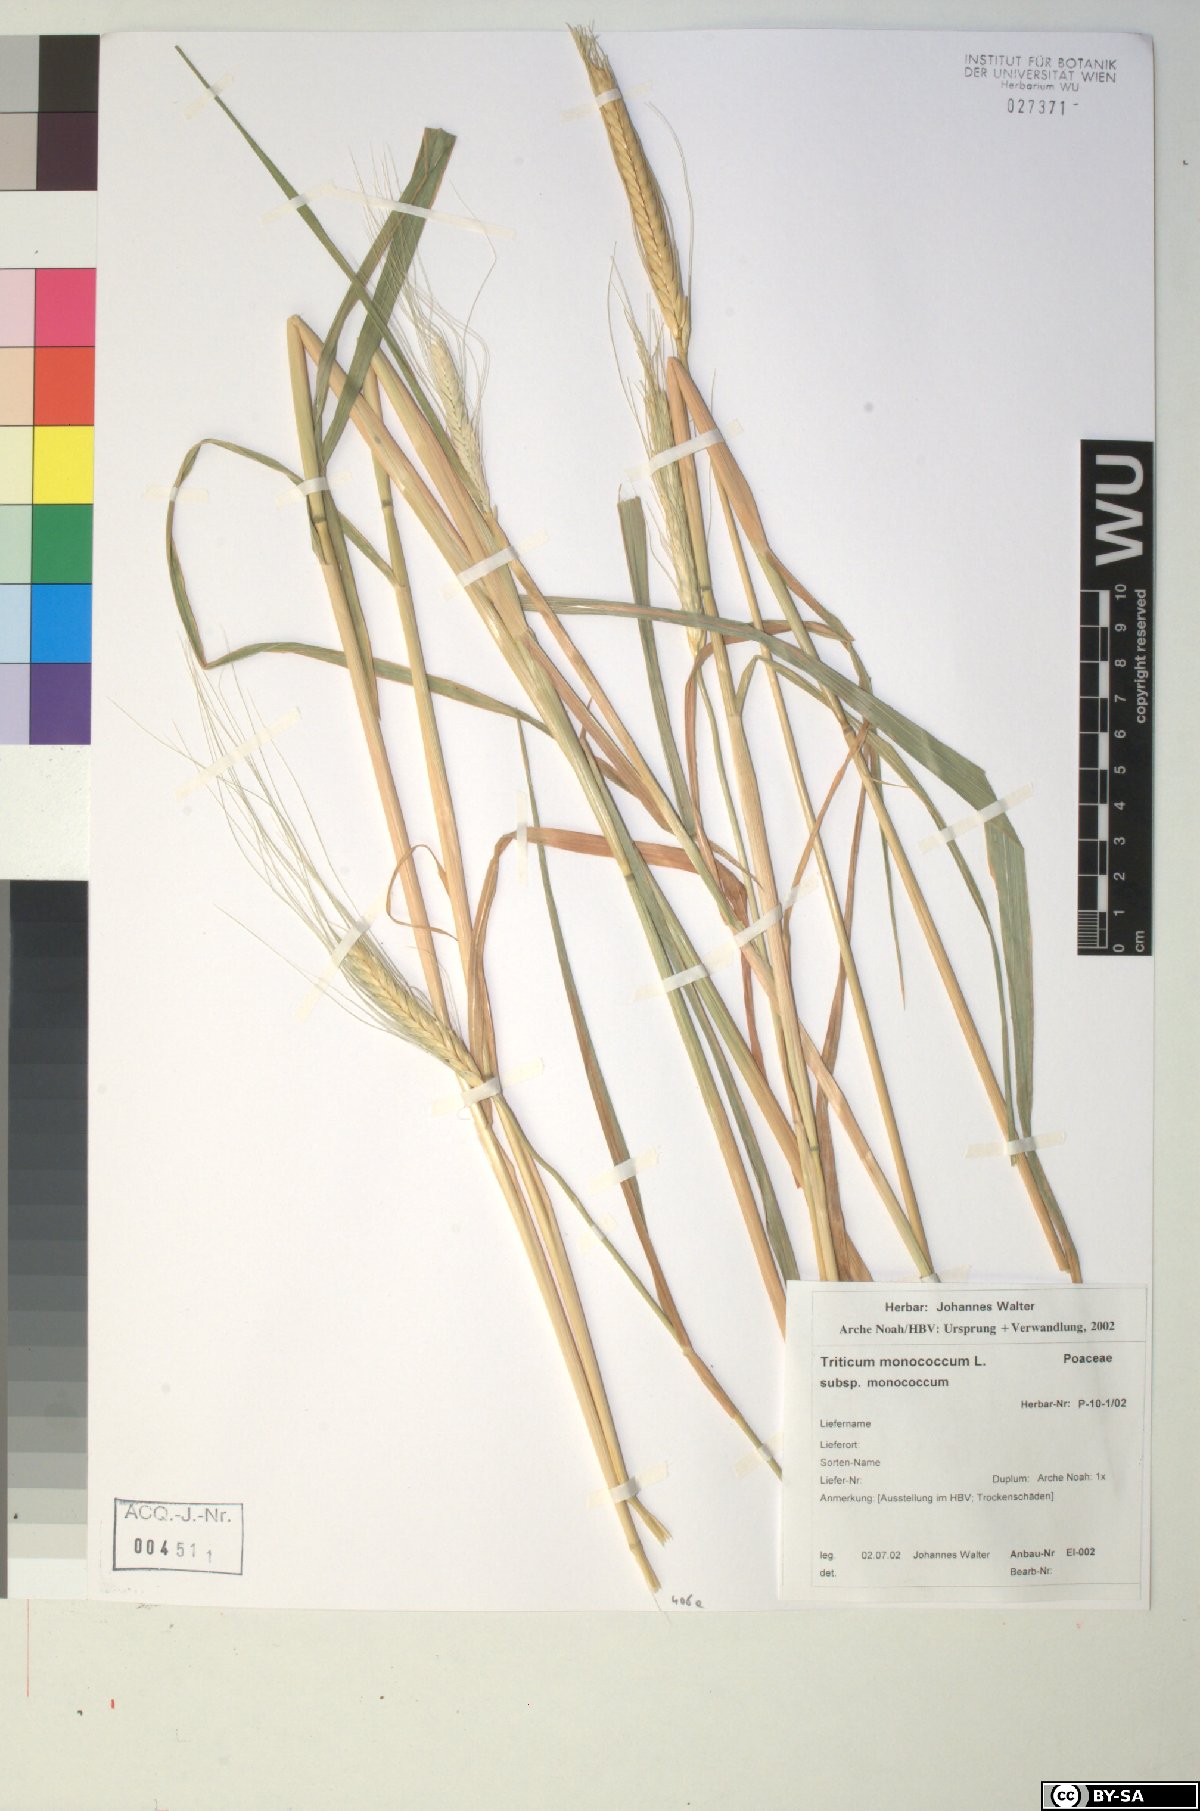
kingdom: Plantae
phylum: Tracheophyta
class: Liliopsida
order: Poales
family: Poaceae
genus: Triticum
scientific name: Triticum monococcum
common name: Einkorn
